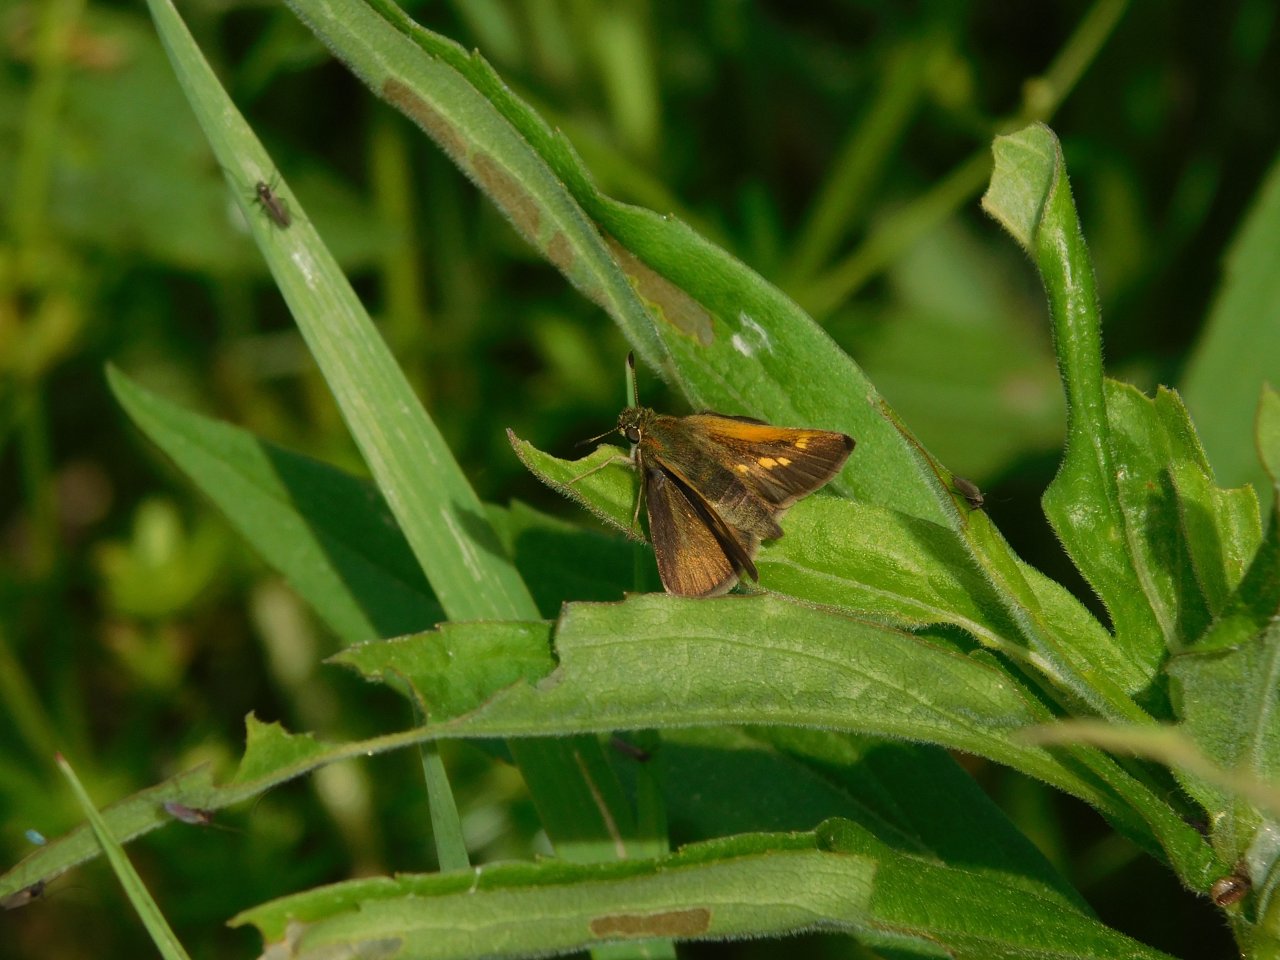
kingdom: Animalia
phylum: Arthropoda
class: Insecta
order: Lepidoptera
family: Hesperiidae
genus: Polites
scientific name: Polites themistocles
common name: Tawny-edged Skipper
